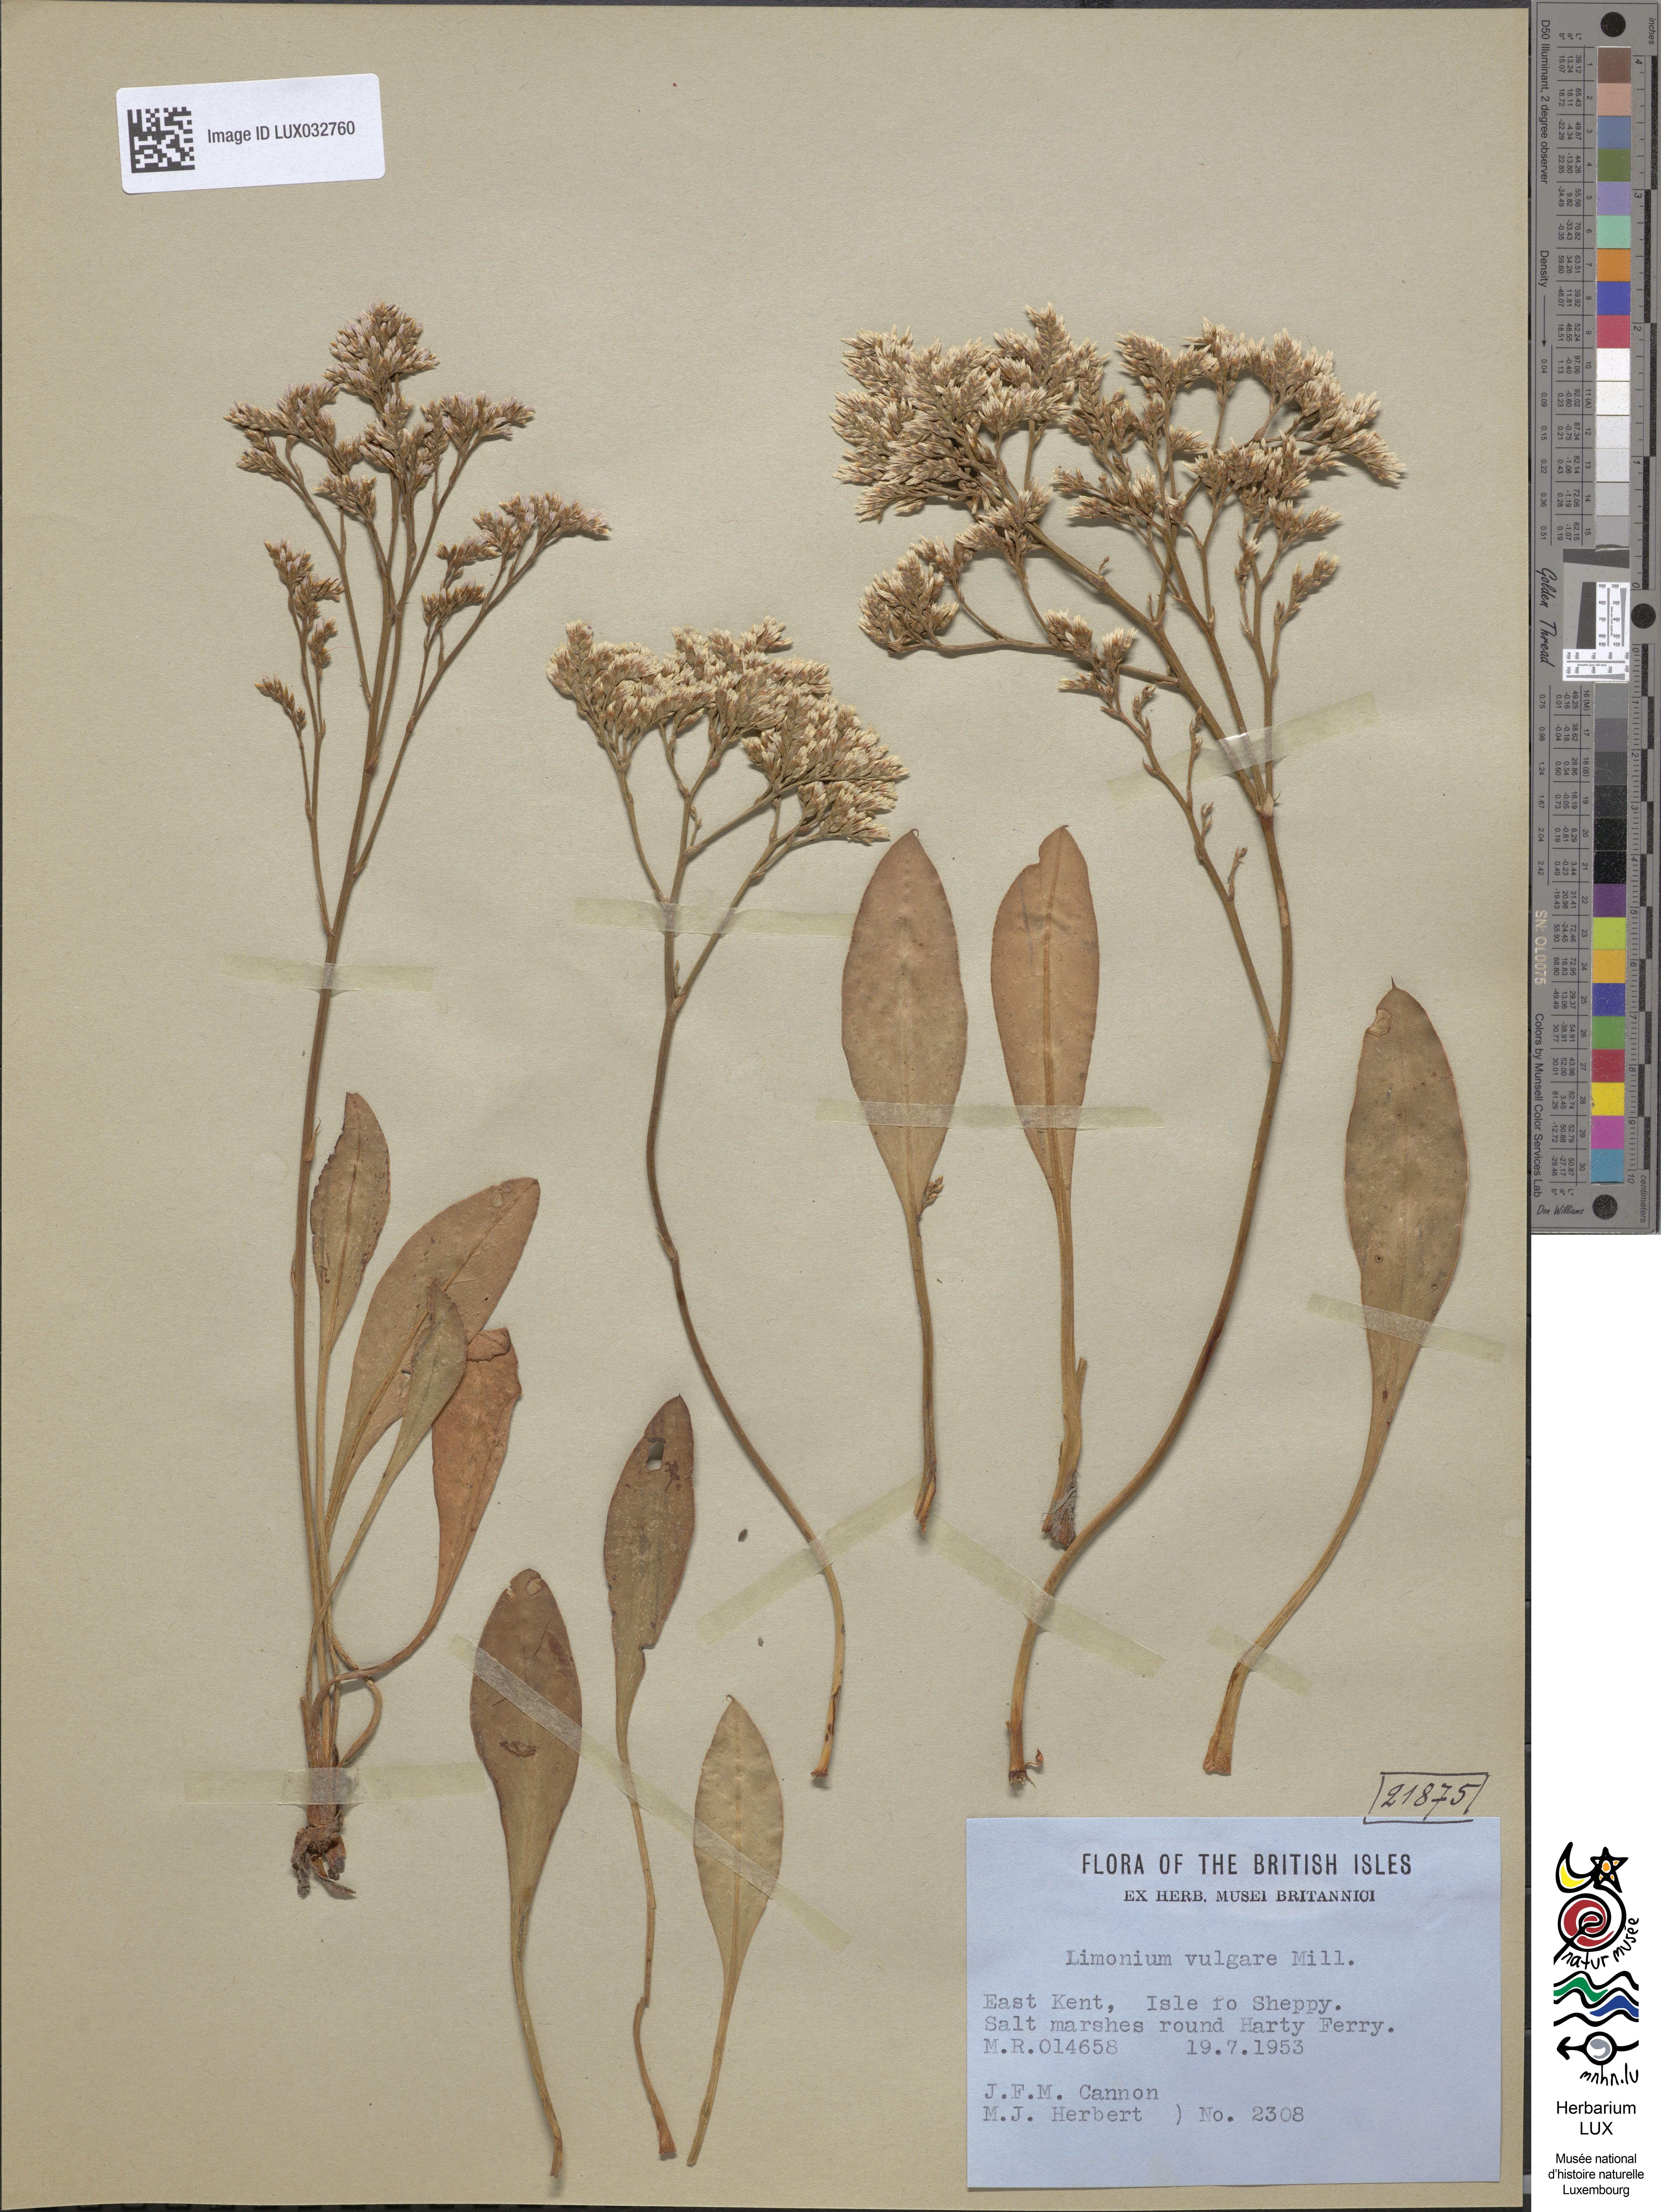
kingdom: Plantae
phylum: Tracheophyta
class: Magnoliopsida
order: Caryophyllales
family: Plumbaginaceae
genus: Limonium
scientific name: Limonium vulgare
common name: Common sea-lavender
